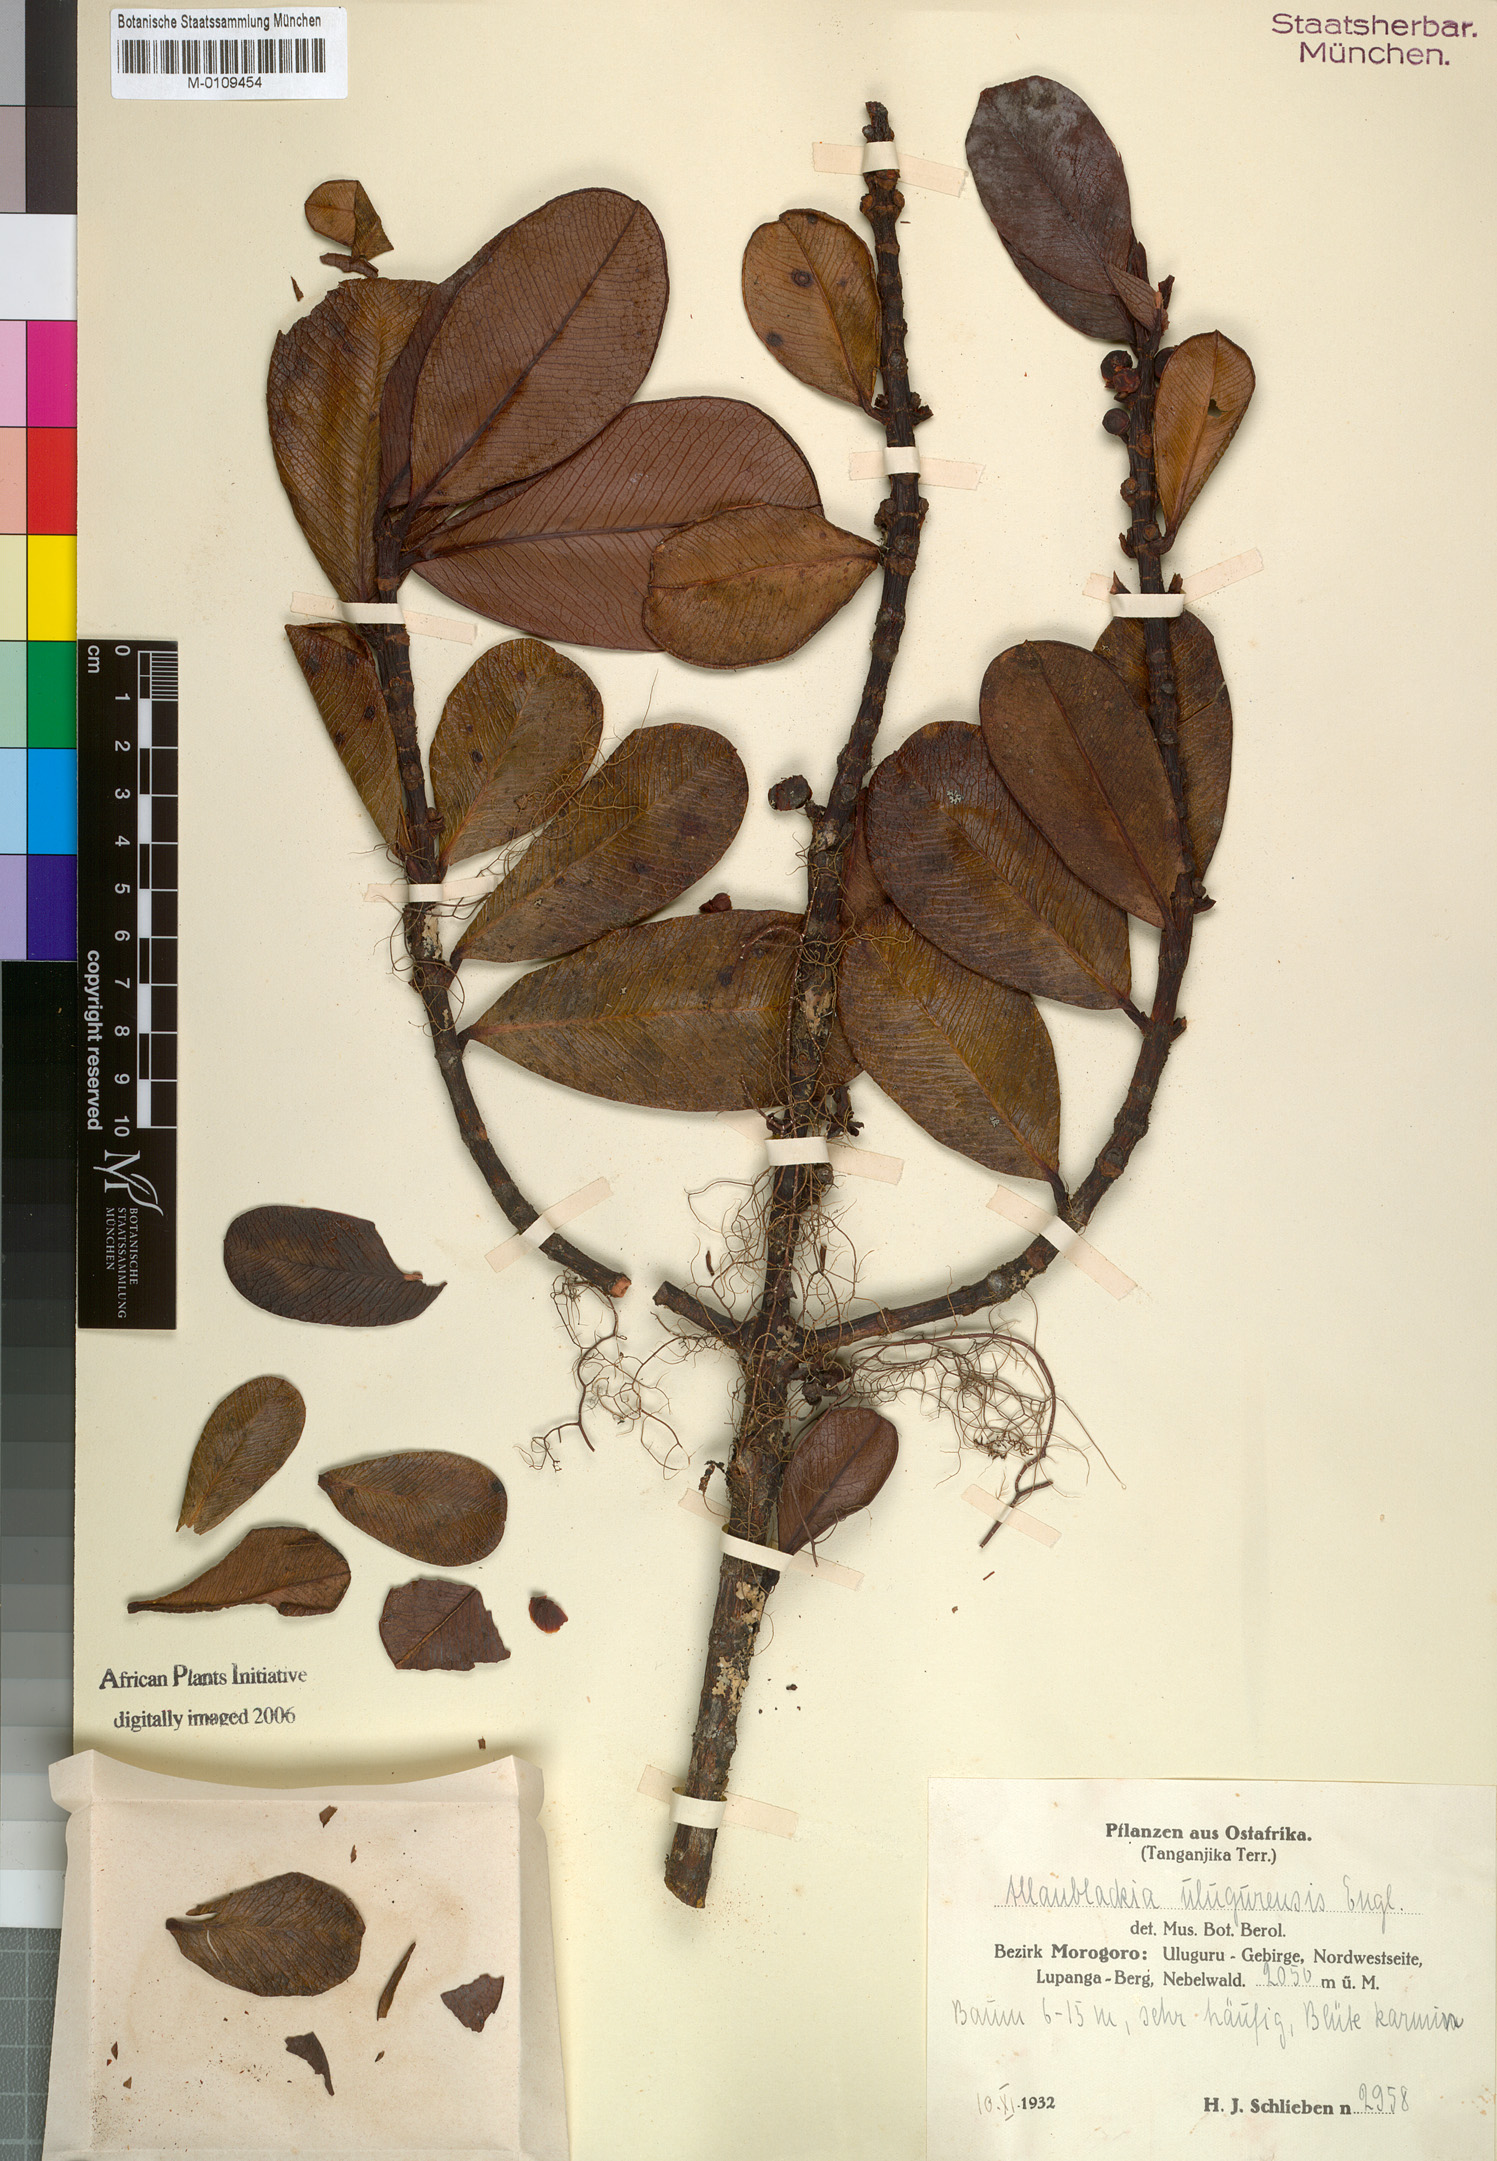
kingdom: Plantae
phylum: Tracheophyta
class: Magnoliopsida
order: Malpighiales
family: Clusiaceae
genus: Allanblackia
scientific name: Allanblackia ulugurensis
